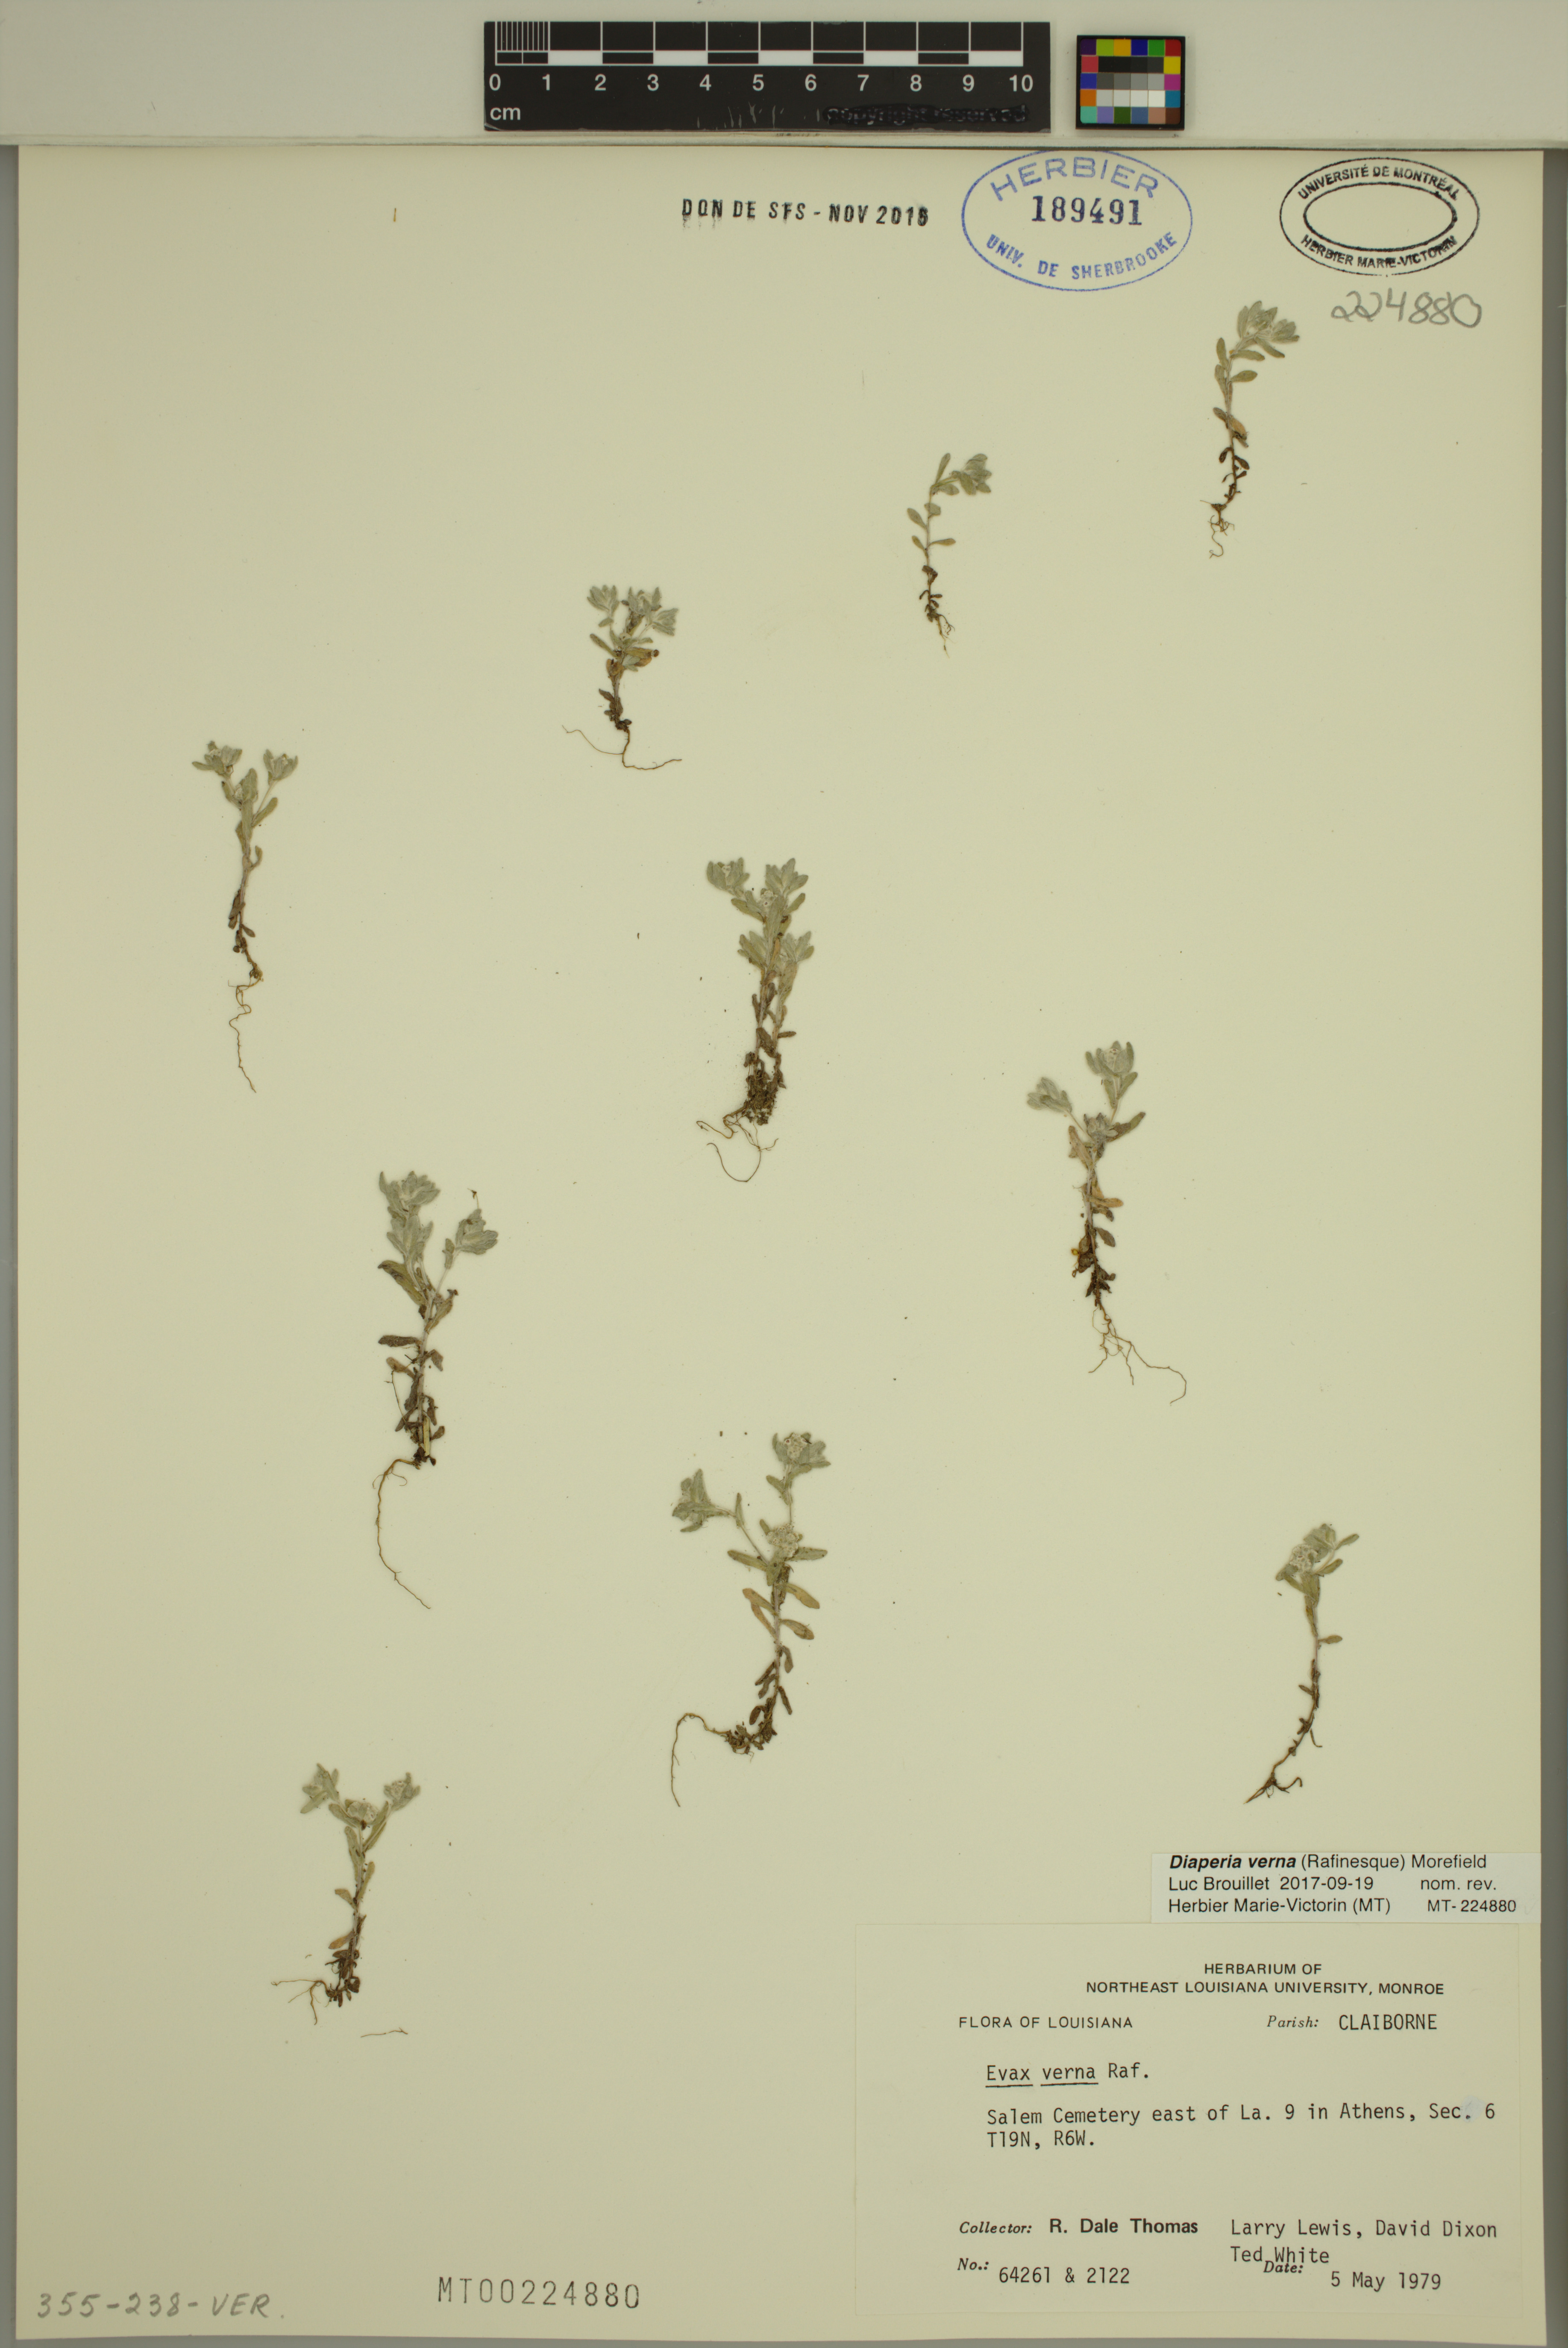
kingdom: Plantae
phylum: Tracheophyta
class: Magnoliopsida
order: Asterales
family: Asteraceae
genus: Diaperia
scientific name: Diaperia verna
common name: Many-stem rabbit-tobacco
